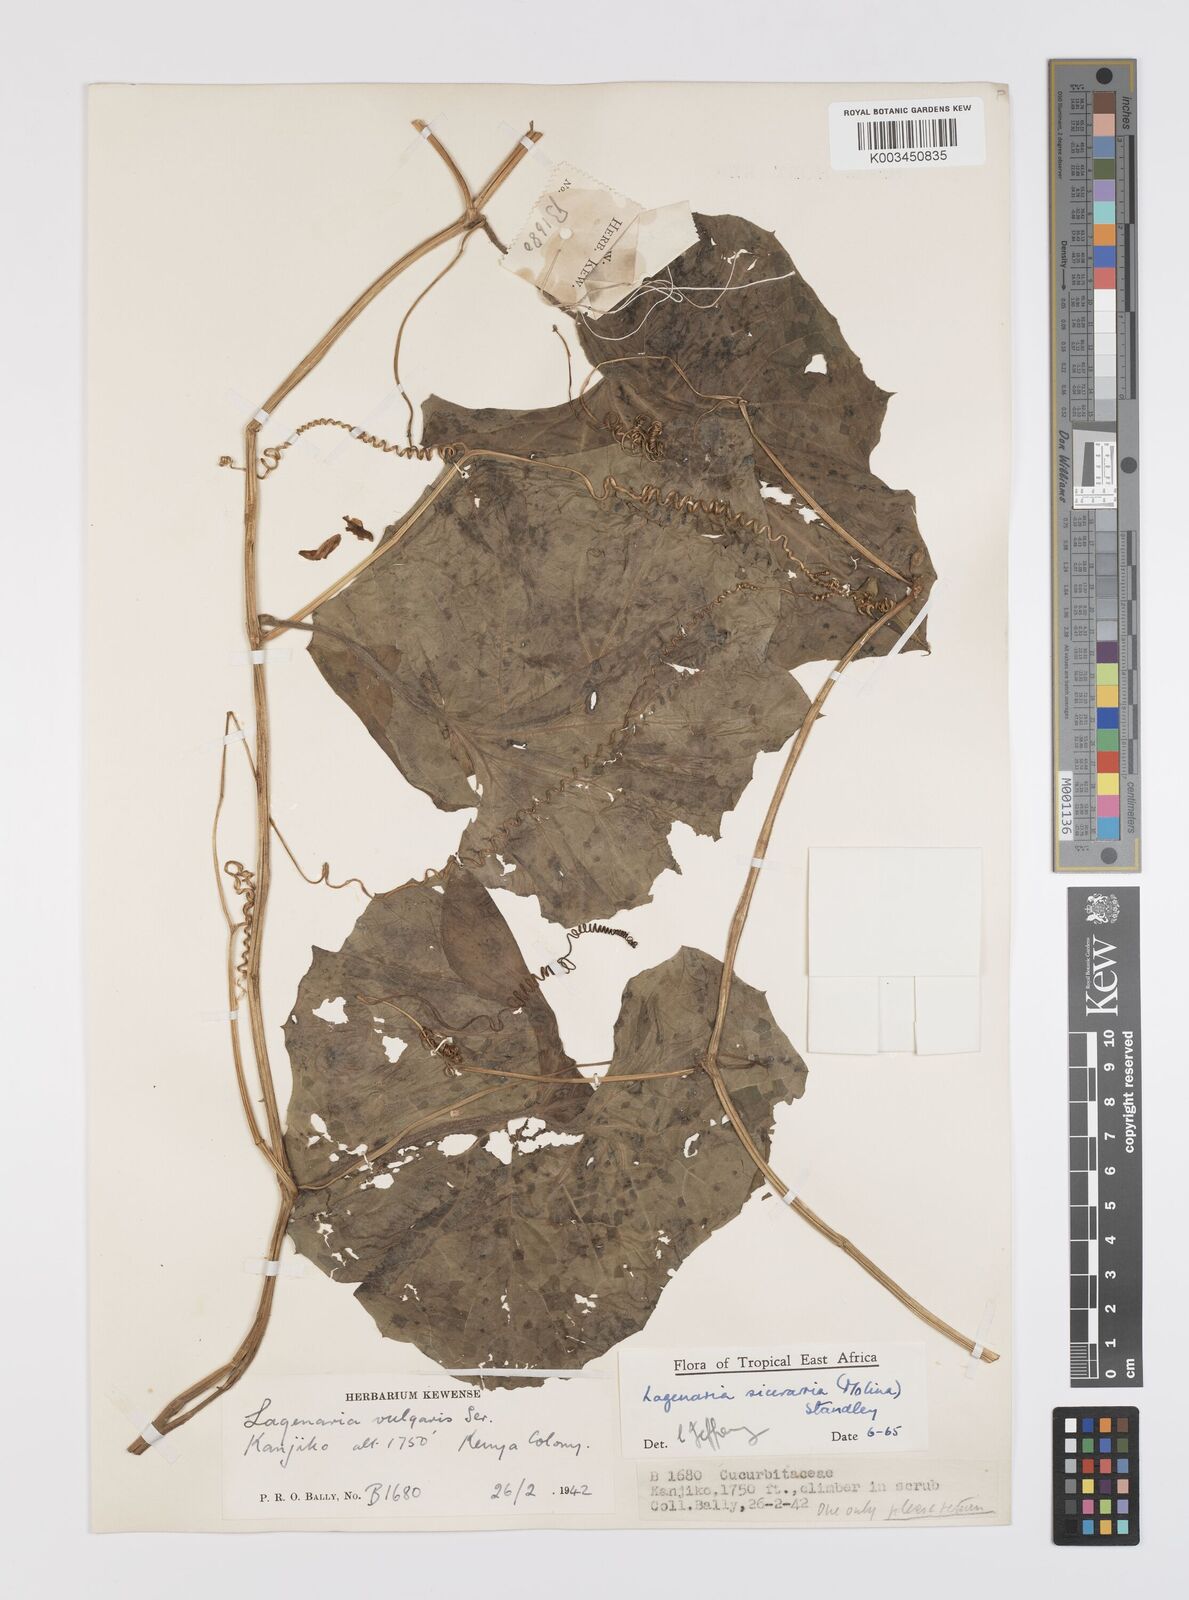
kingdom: Plantae
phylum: Tracheophyta
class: Magnoliopsida
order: Cucurbitales
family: Cucurbitaceae
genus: Lagenaria
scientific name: Lagenaria siceraria
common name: Bottle gourd
